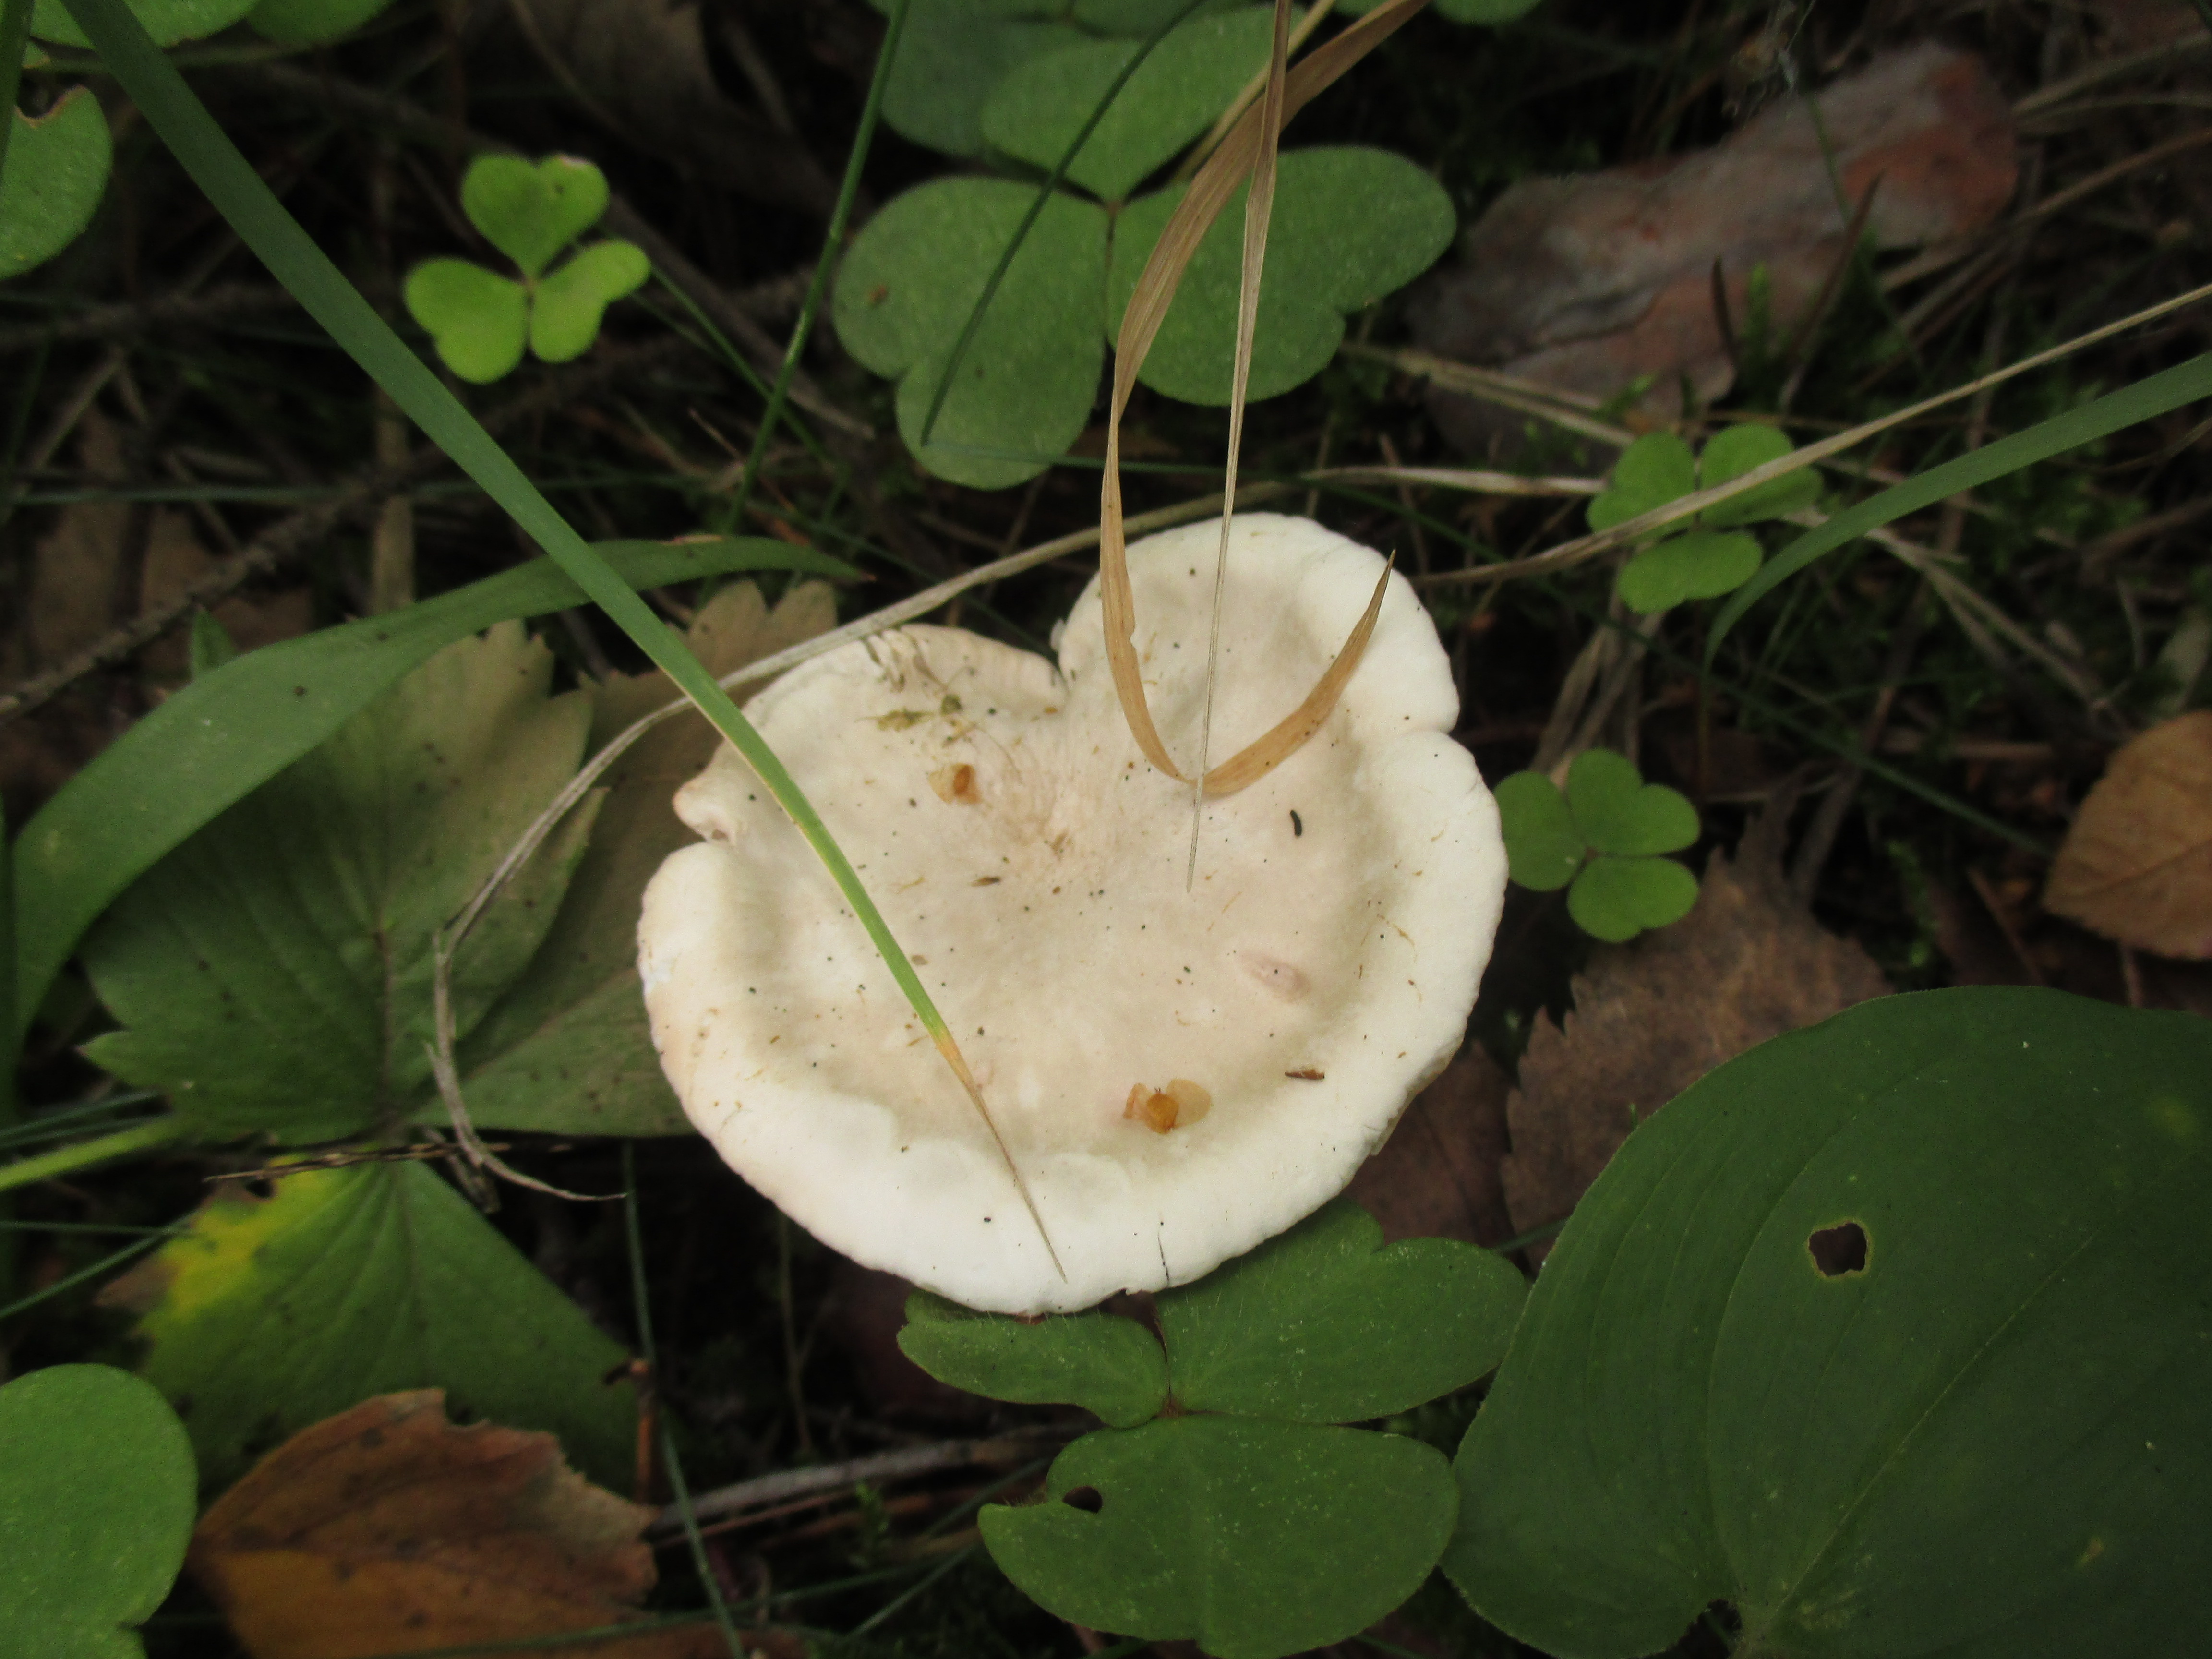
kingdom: Fungi
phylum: Basidiomycota
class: Agaricomycetes
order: Agaricales
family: Entolomataceae
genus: Clitopilus
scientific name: Clitopilus prunulus
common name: The miller
